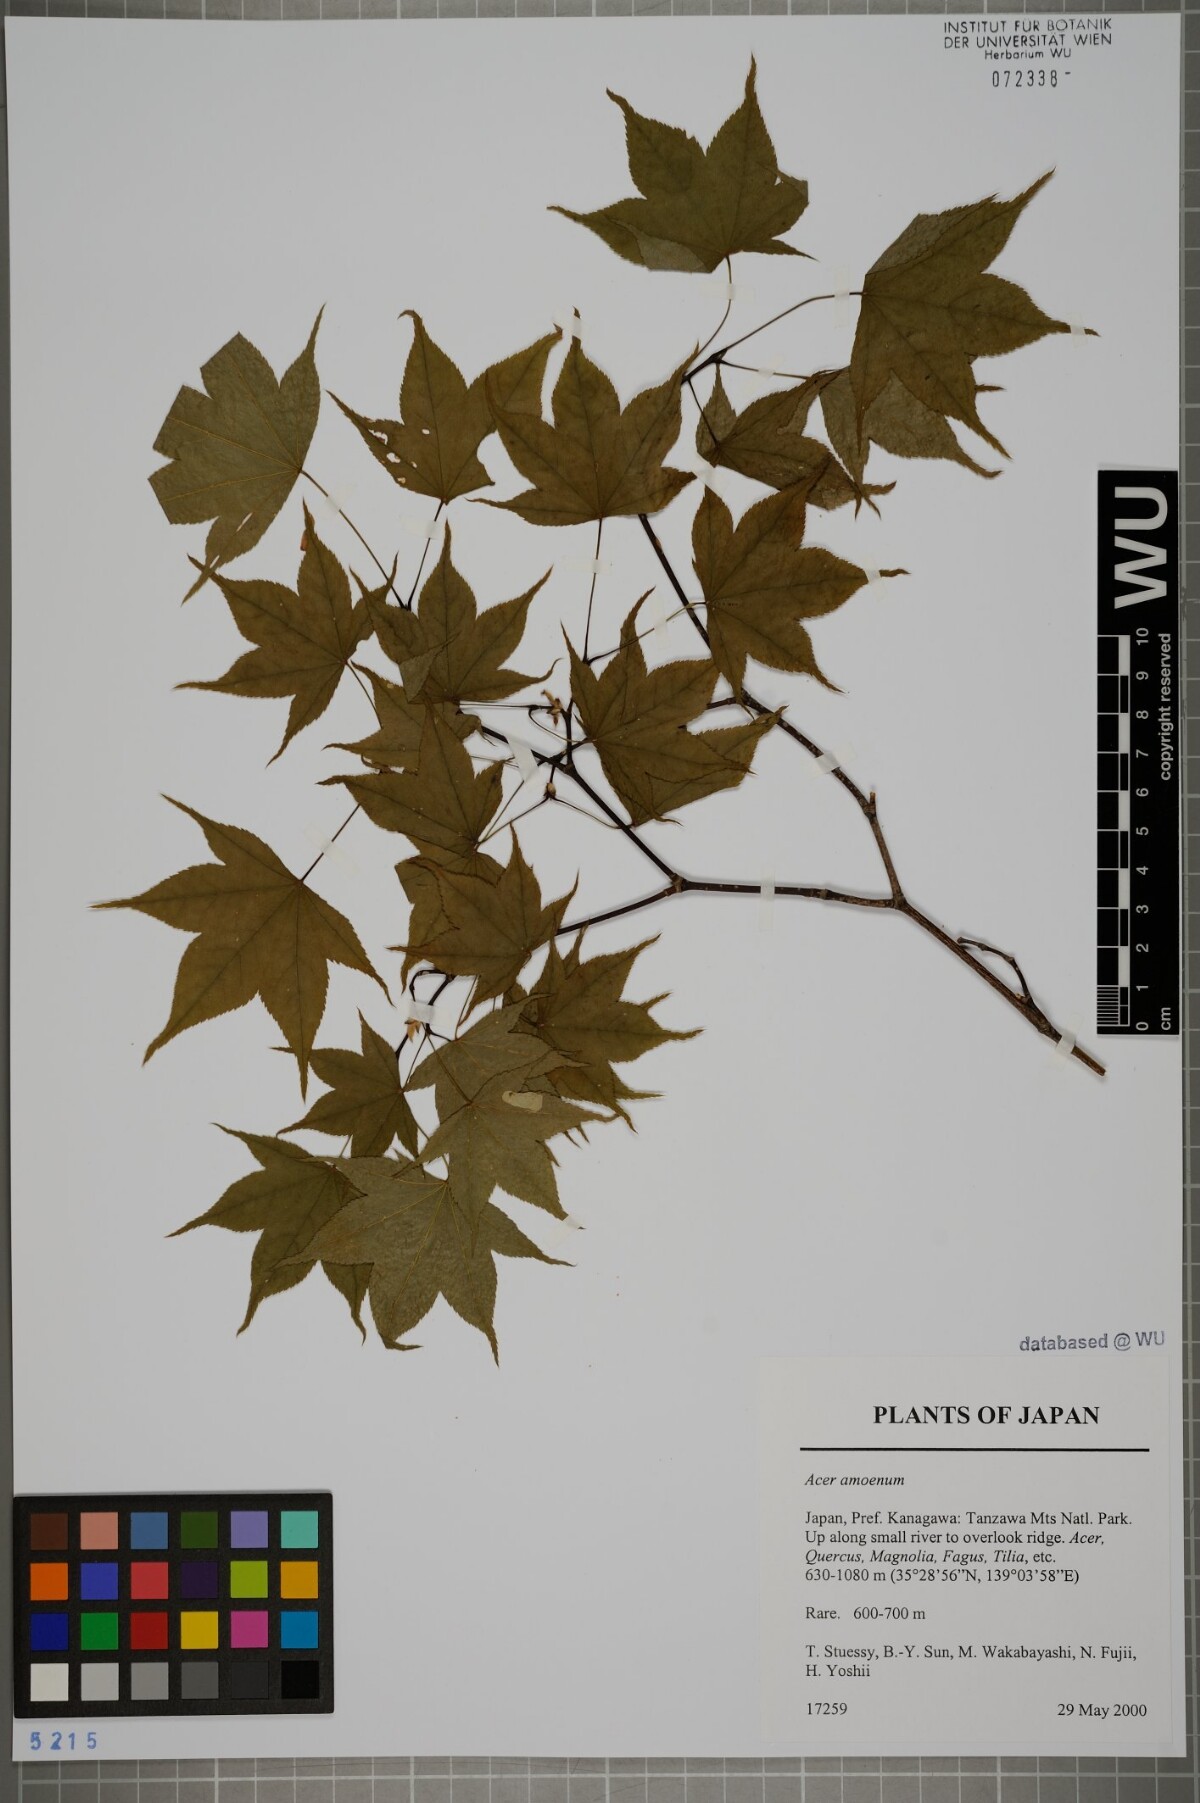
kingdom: Plantae
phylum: Tracheophyta
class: Magnoliopsida
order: Sapindales
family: Sapindaceae
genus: Acer
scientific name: Acer palmatum
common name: Japanese maple
